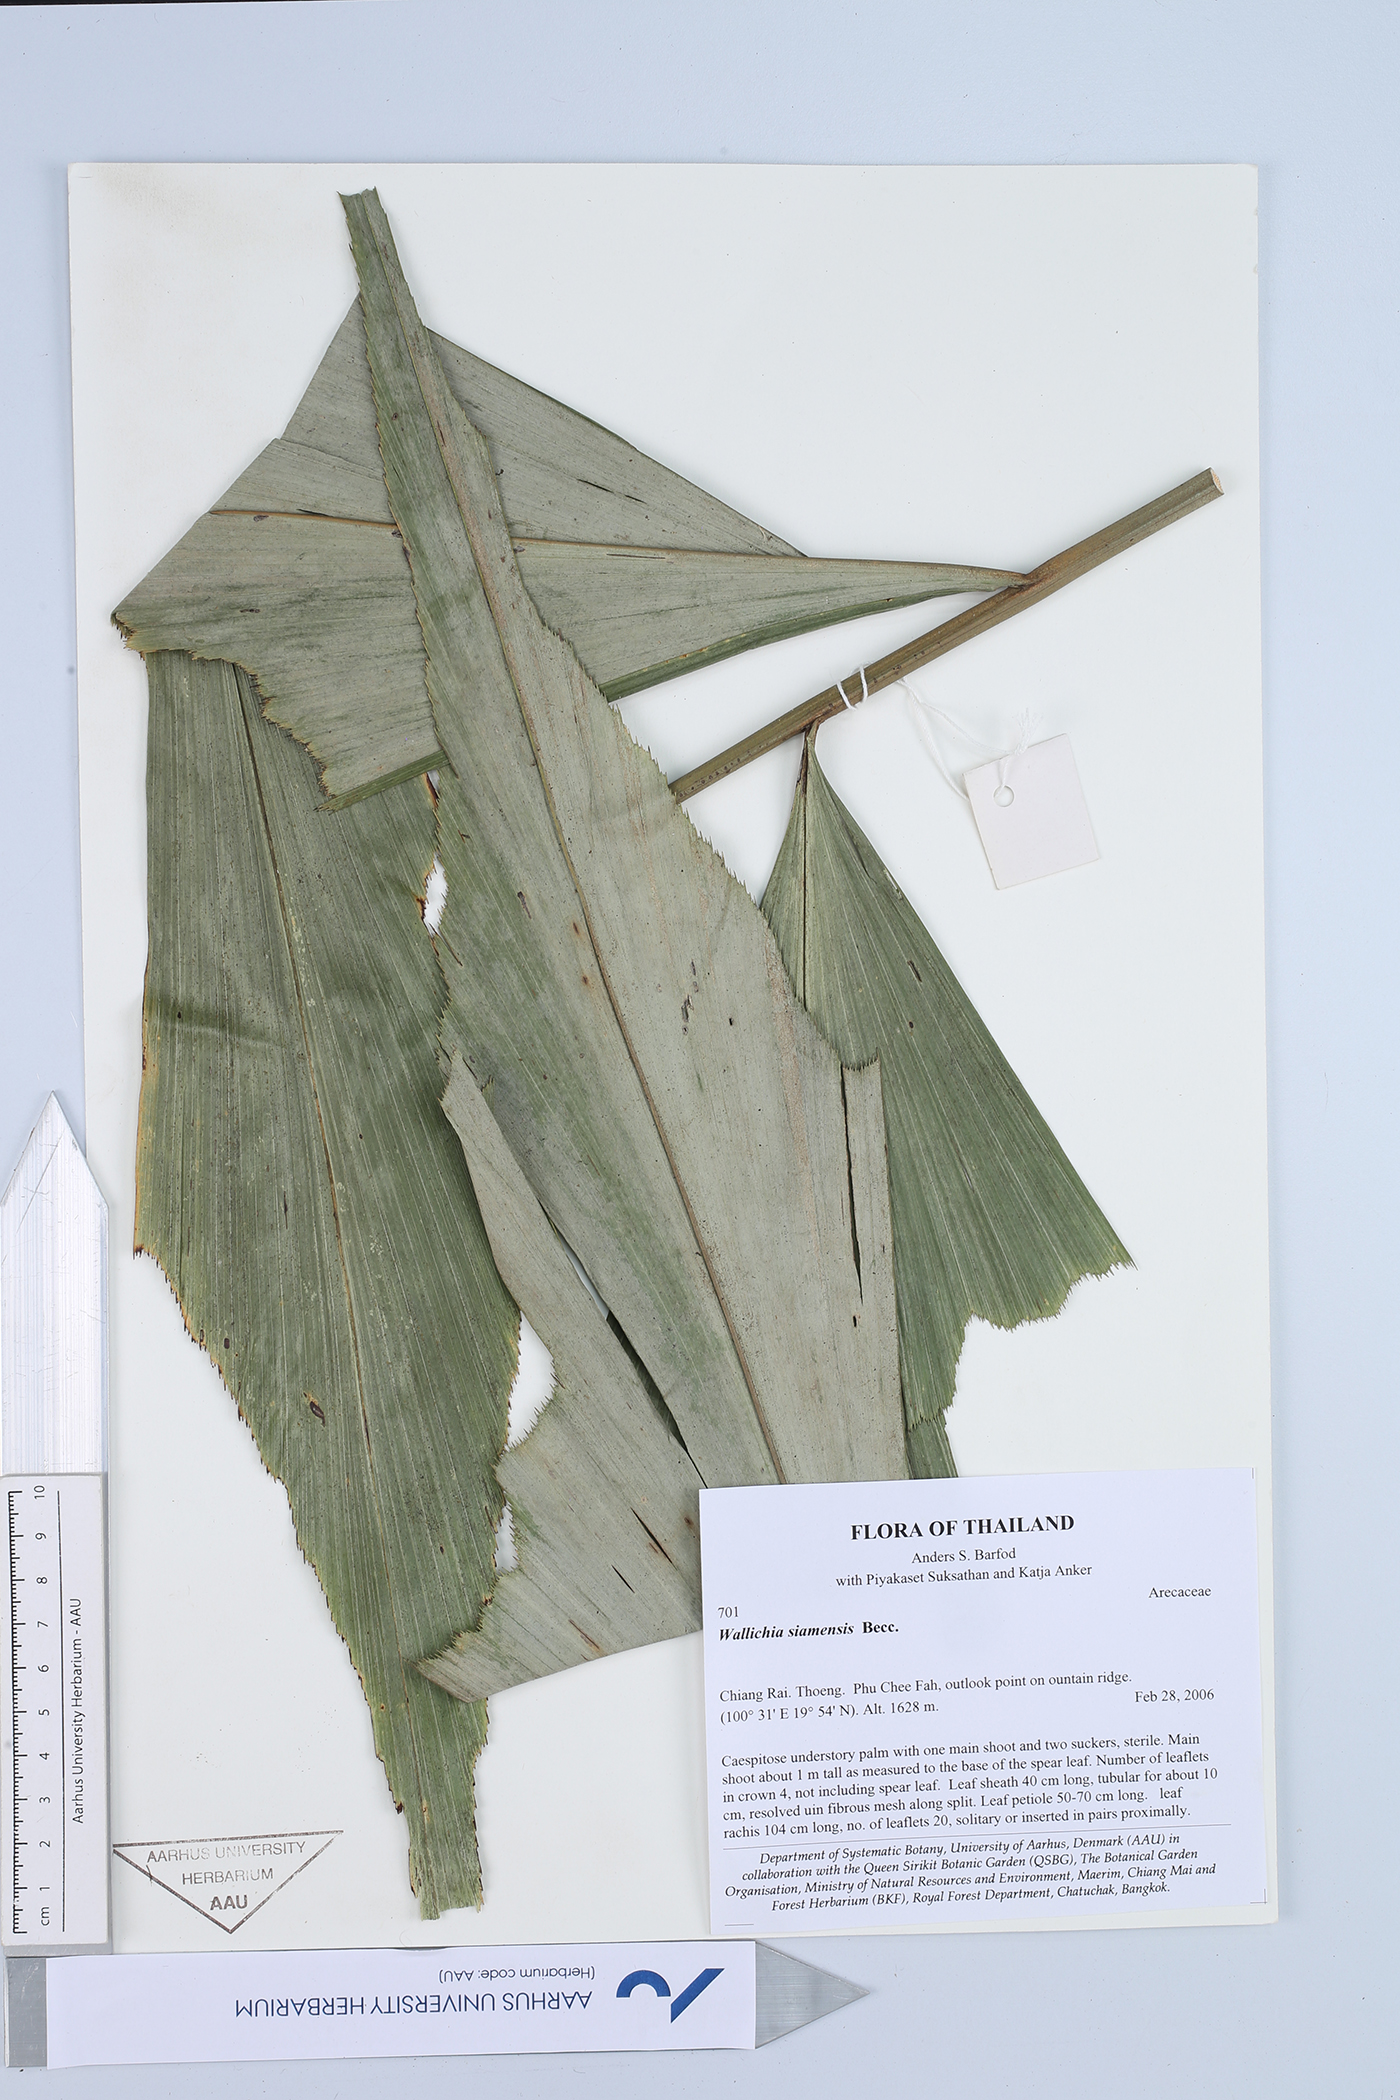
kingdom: Plantae
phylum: Tracheophyta
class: Liliopsida
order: Arecales
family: Arecaceae
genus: Wallichia
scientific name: Wallichia caryotoides
